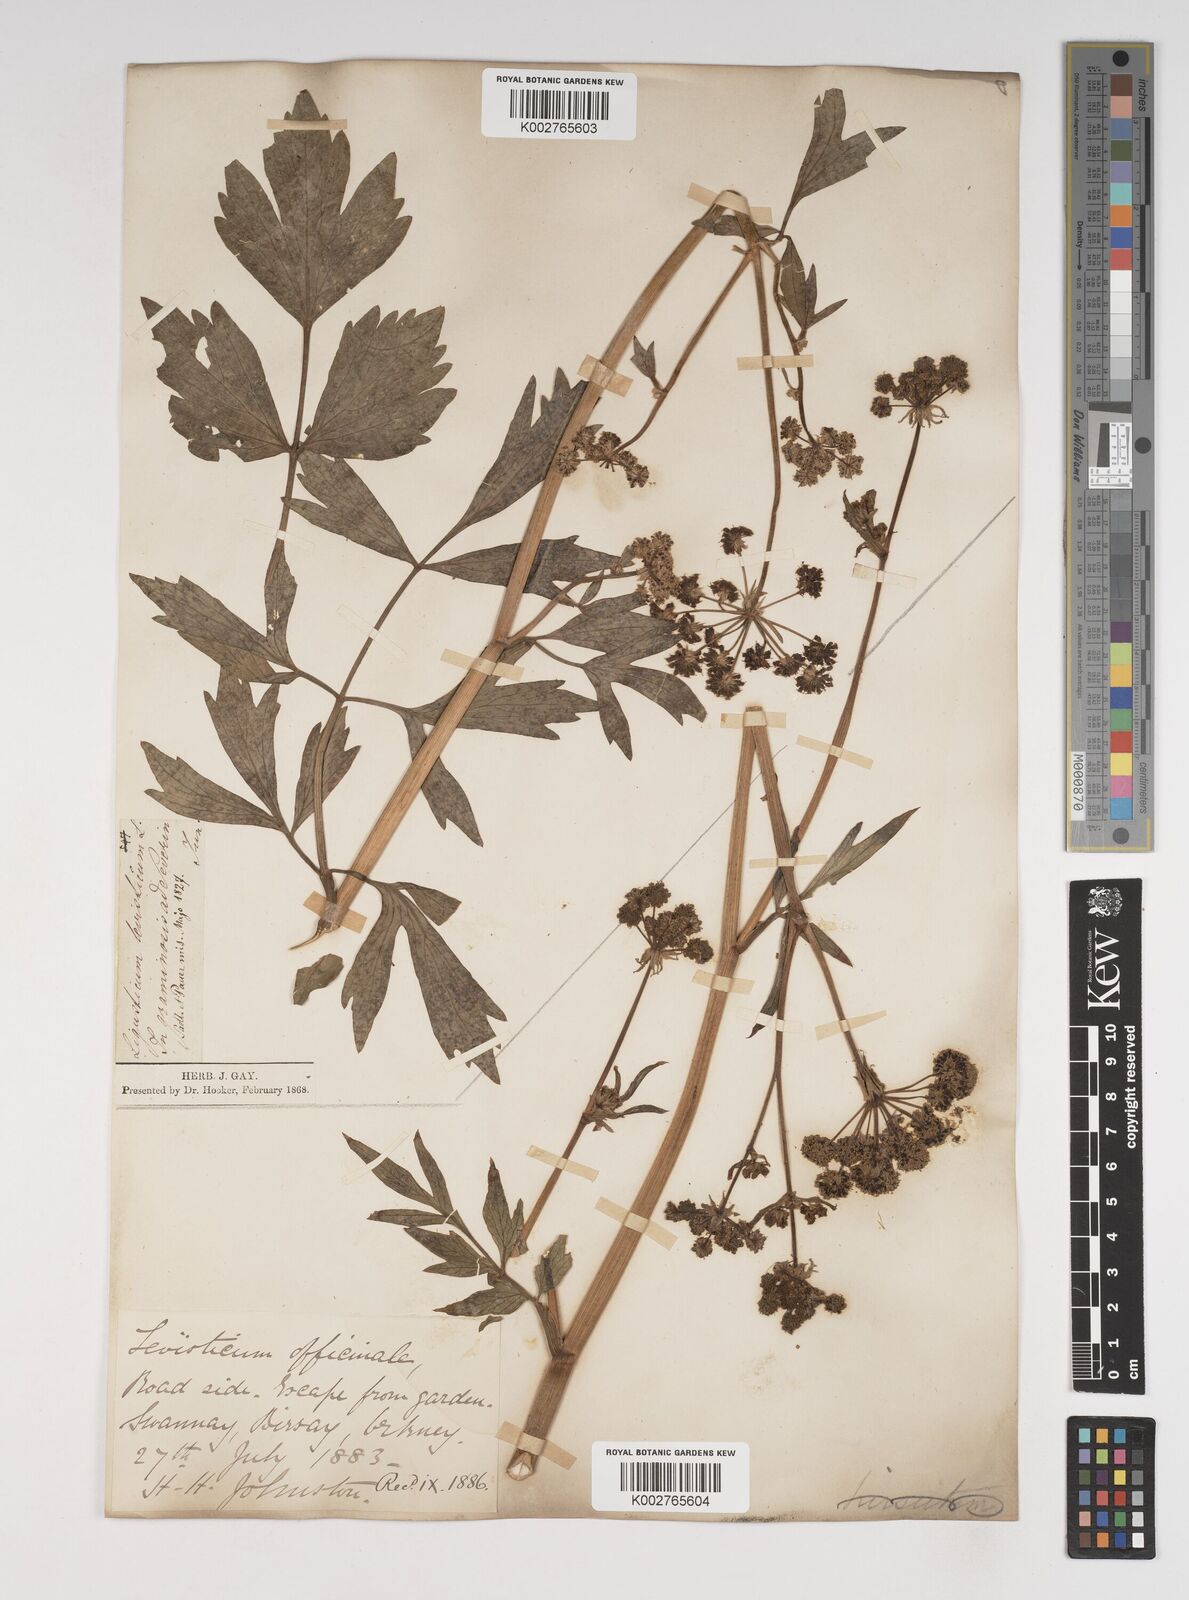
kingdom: Plantae
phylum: Tracheophyta
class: Magnoliopsida
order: Apiales
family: Apiaceae
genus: Levisticum
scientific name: Levisticum officinale
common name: Lovage
